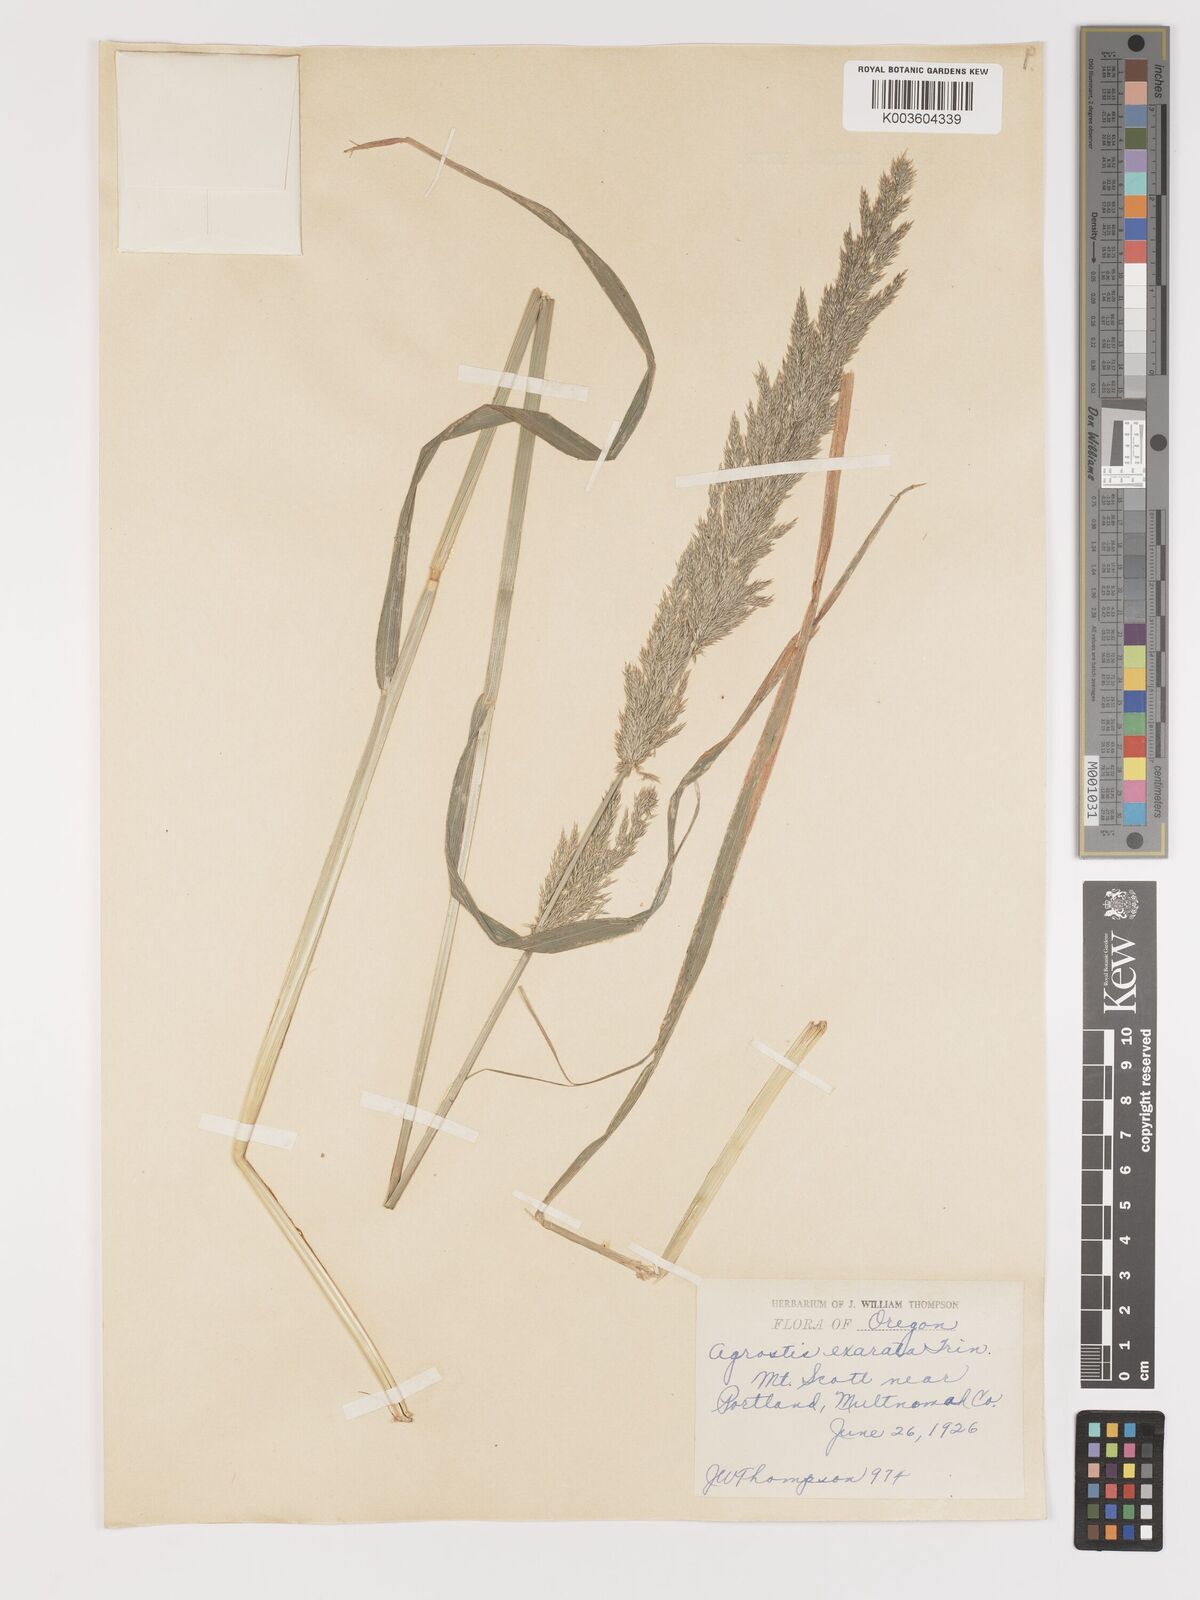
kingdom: Plantae
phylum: Tracheophyta
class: Liliopsida
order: Poales
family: Poaceae
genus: Agrostis
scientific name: Agrostis exarata
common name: Spike bent
